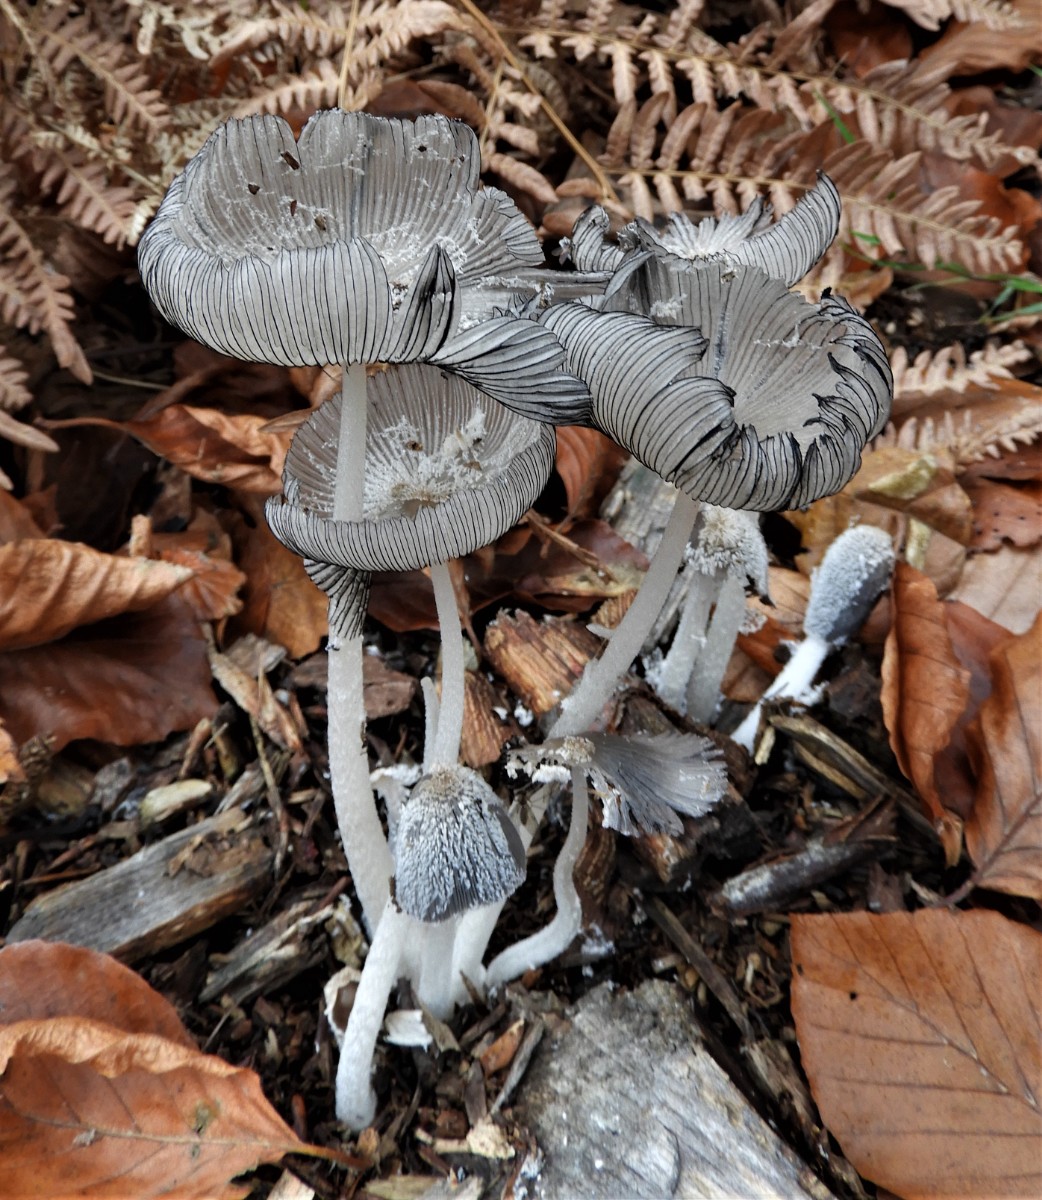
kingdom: Fungi
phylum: Basidiomycota
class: Agaricomycetes
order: Agaricales
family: Psathyrellaceae
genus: Coprinopsis
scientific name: Coprinopsis lagopus
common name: dunstokket blækhat
